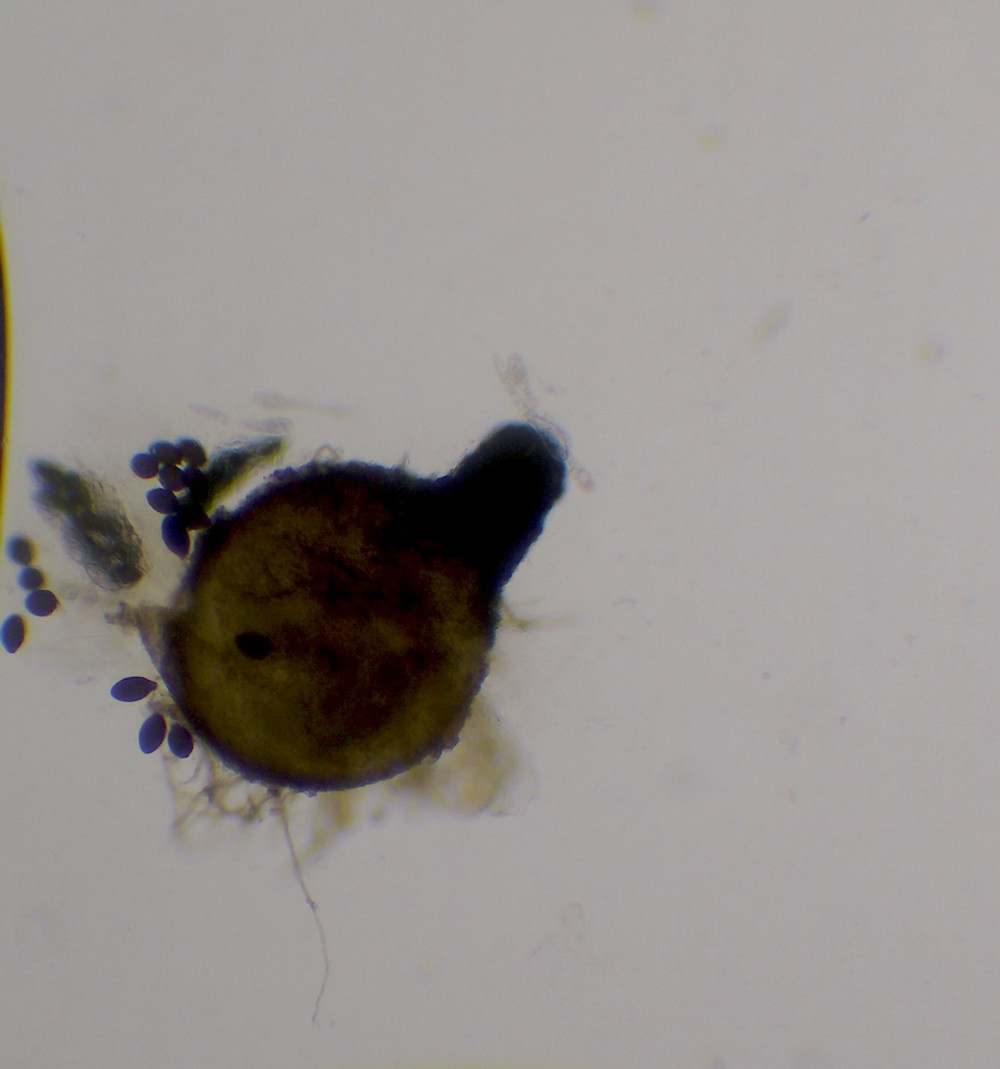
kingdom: Fungi
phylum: Ascomycota
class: Sordariomycetes
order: Sordariales
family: Naviculisporaceae
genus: Rhypophila
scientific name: Rhypophila pleiospora
